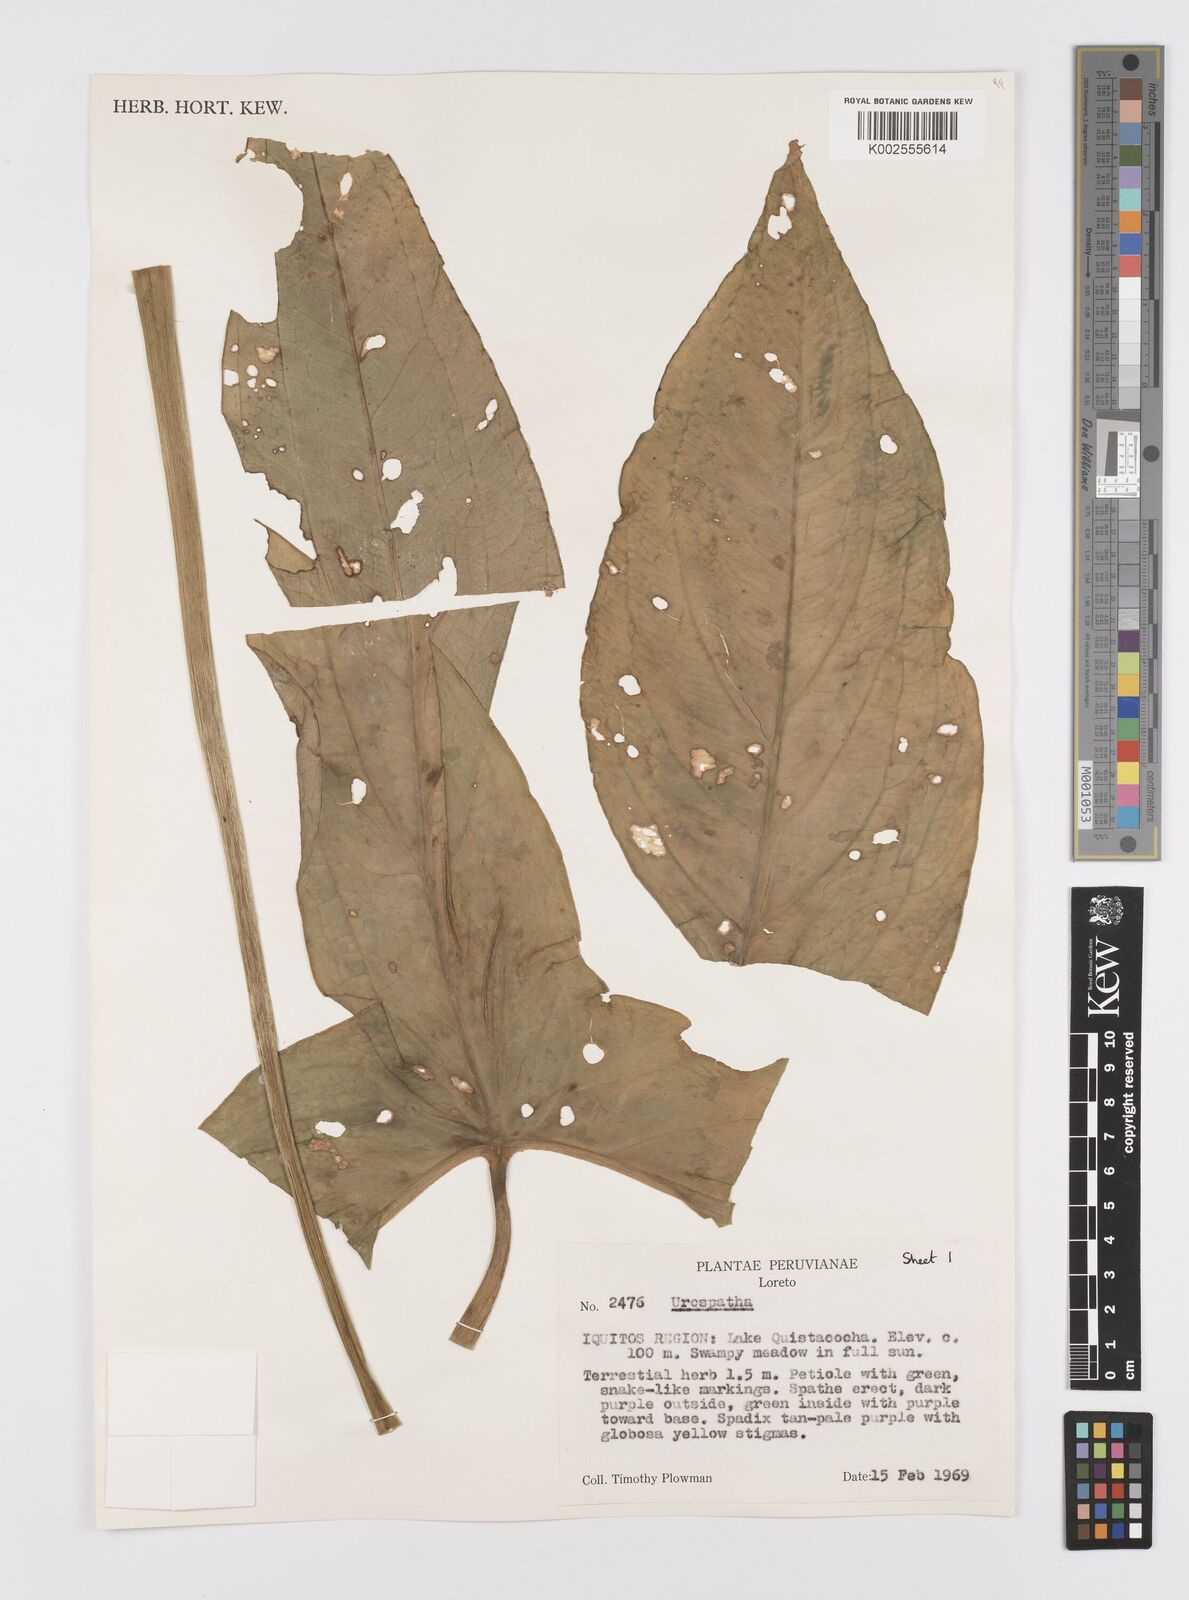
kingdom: Plantae
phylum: Tracheophyta
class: Liliopsida
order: Alismatales
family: Araceae
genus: Urospatha
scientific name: Urospatha
